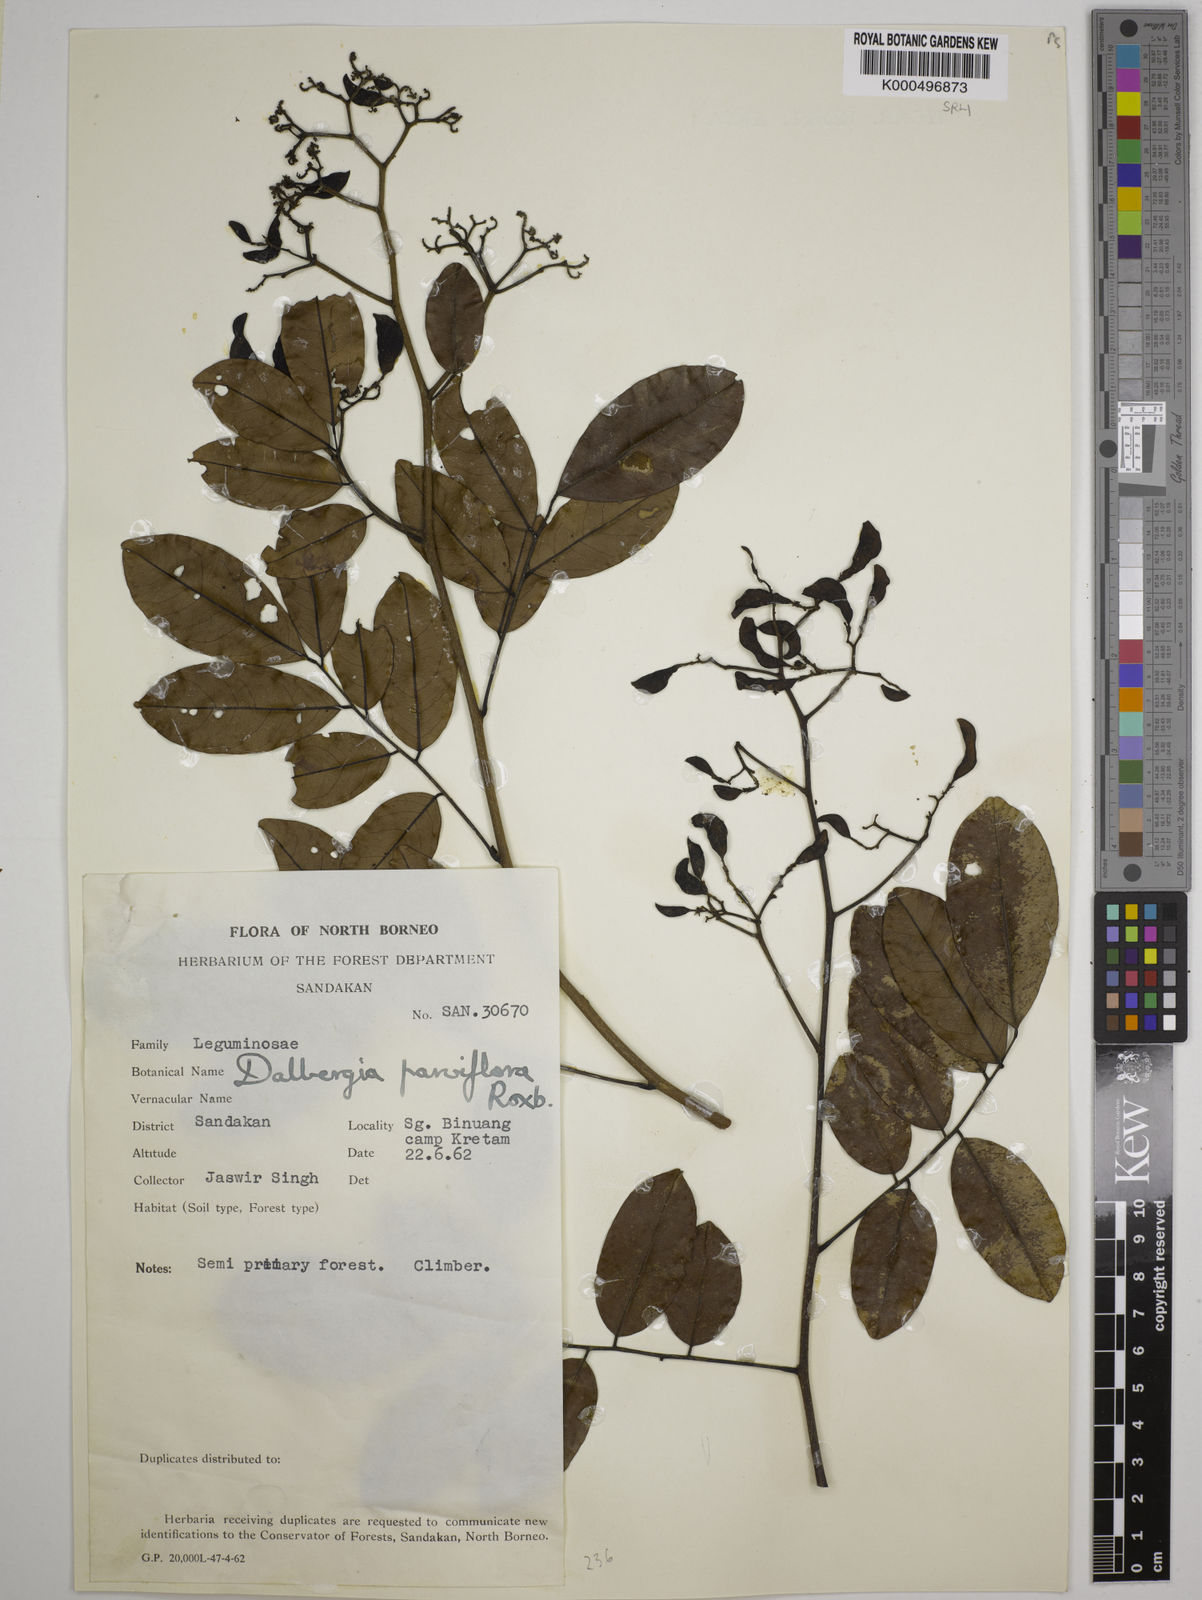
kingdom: Plantae
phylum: Tracheophyta
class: Magnoliopsida
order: Fabales
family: Fabaceae
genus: Dalbergia
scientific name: Dalbergia parviflora
